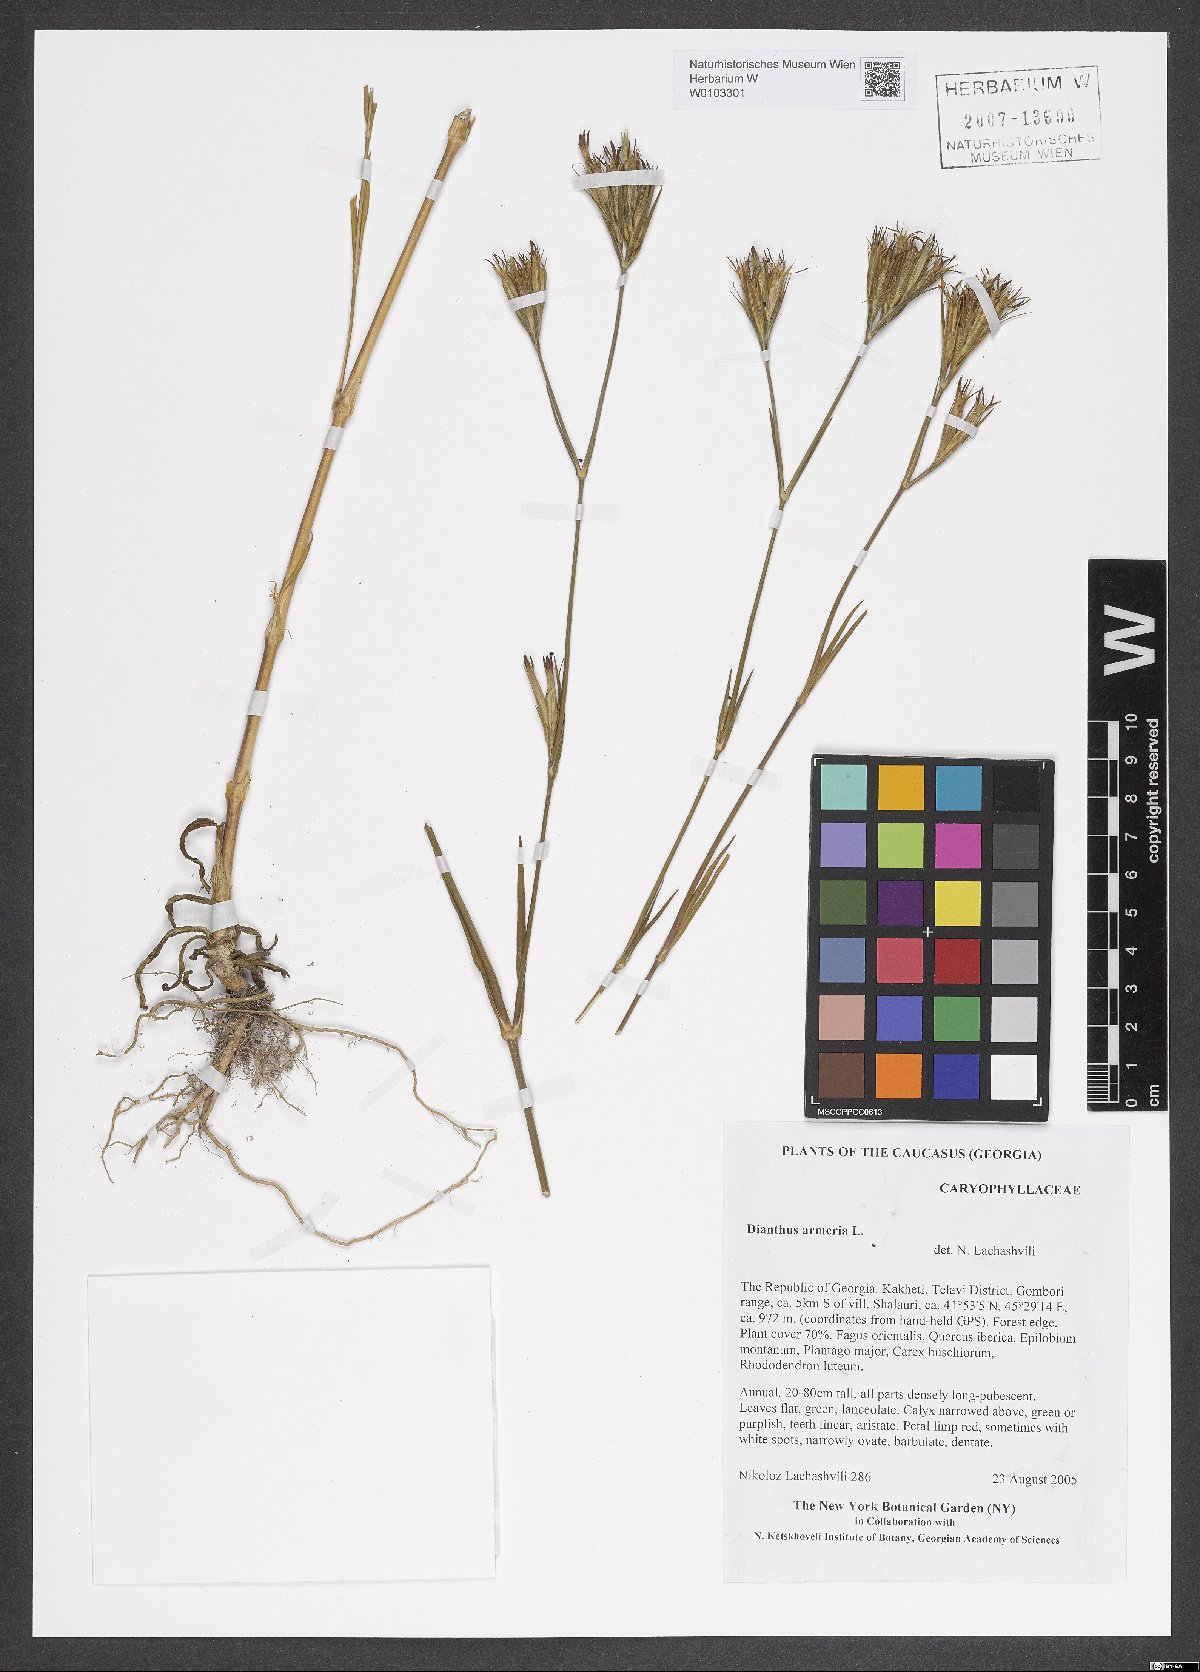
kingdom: Plantae
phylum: Tracheophyta
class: Magnoliopsida
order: Caryophyllales
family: Caryophyllaceae
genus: Dianthus
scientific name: Dianthus armeria
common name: Deptford pink
